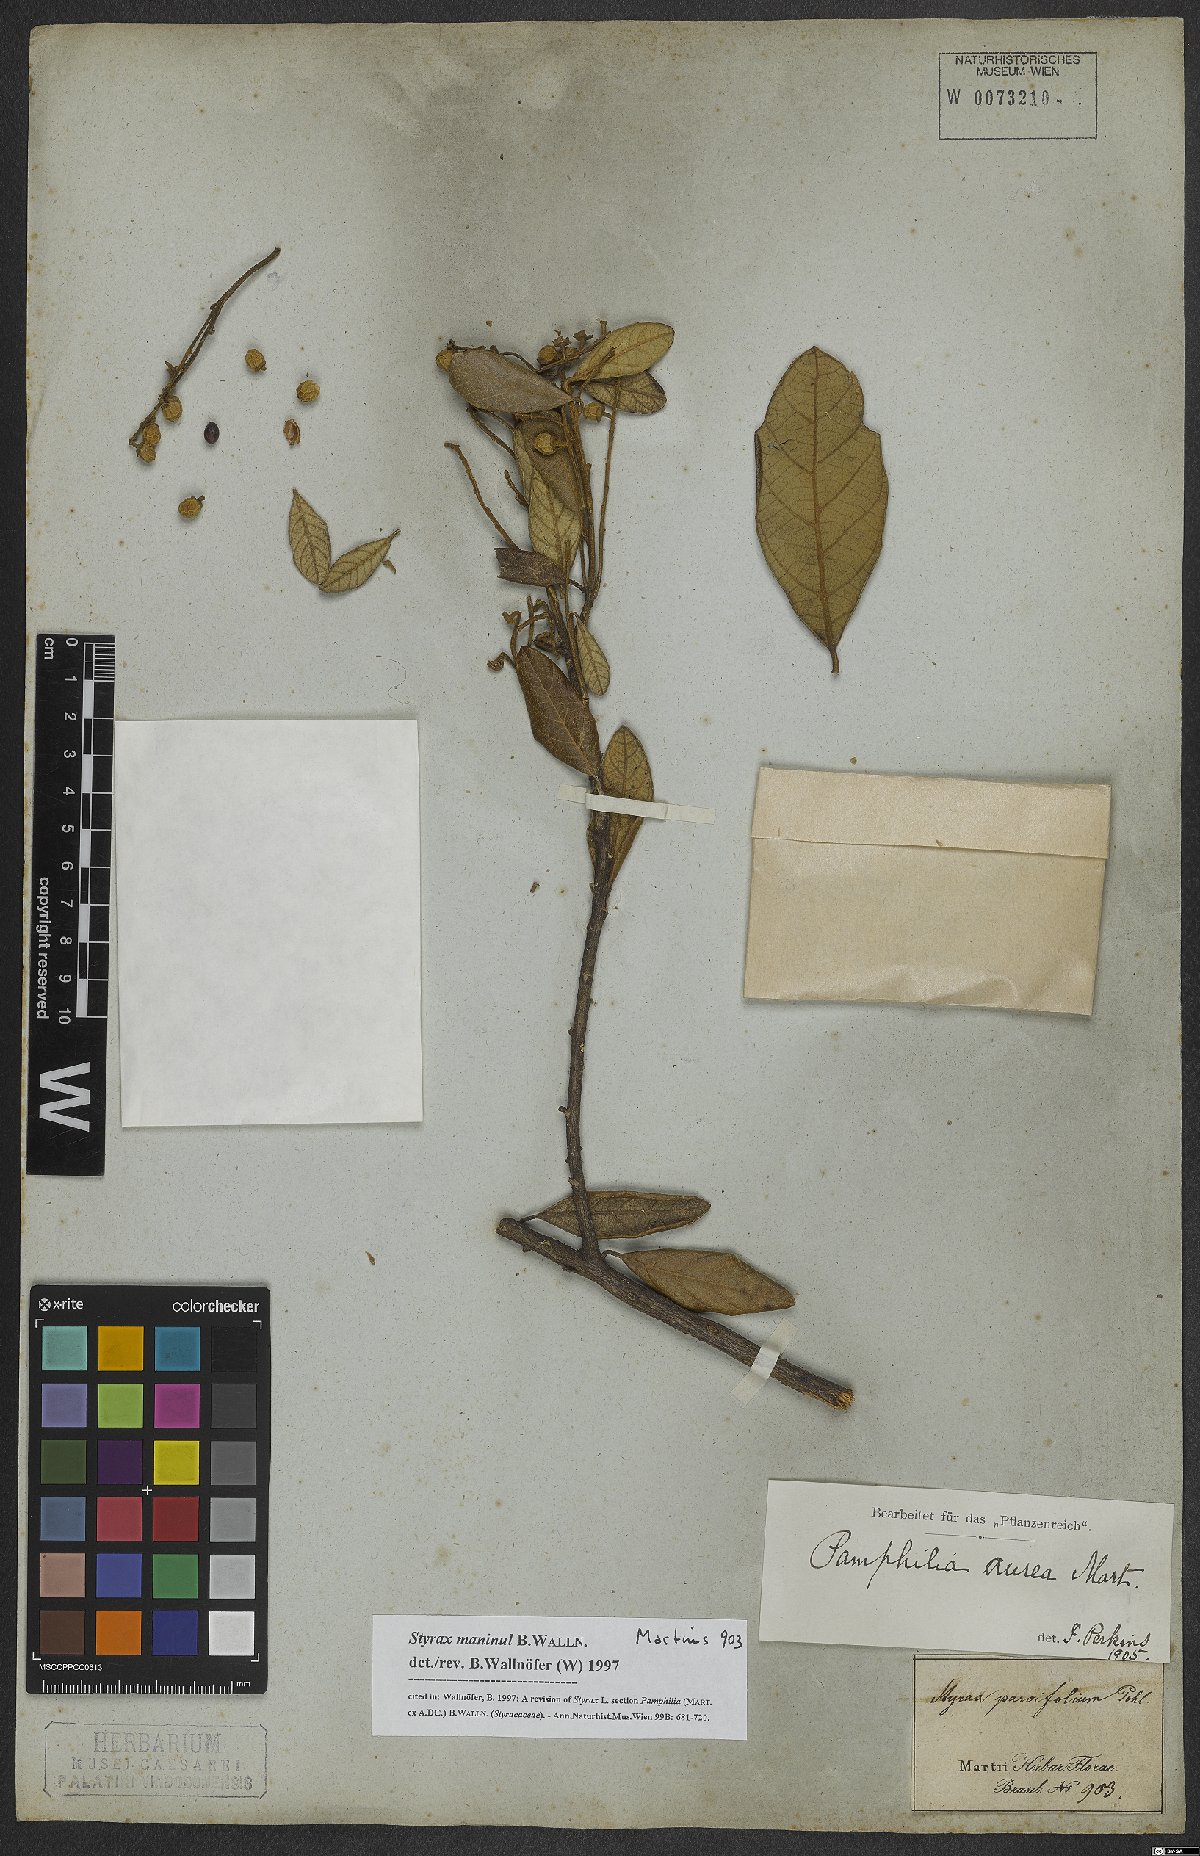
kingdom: Plantae
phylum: Tracheophyta
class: Magnoliopsida
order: Ericales
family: Styracaceae
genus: Styrax
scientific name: Styrax maninul
